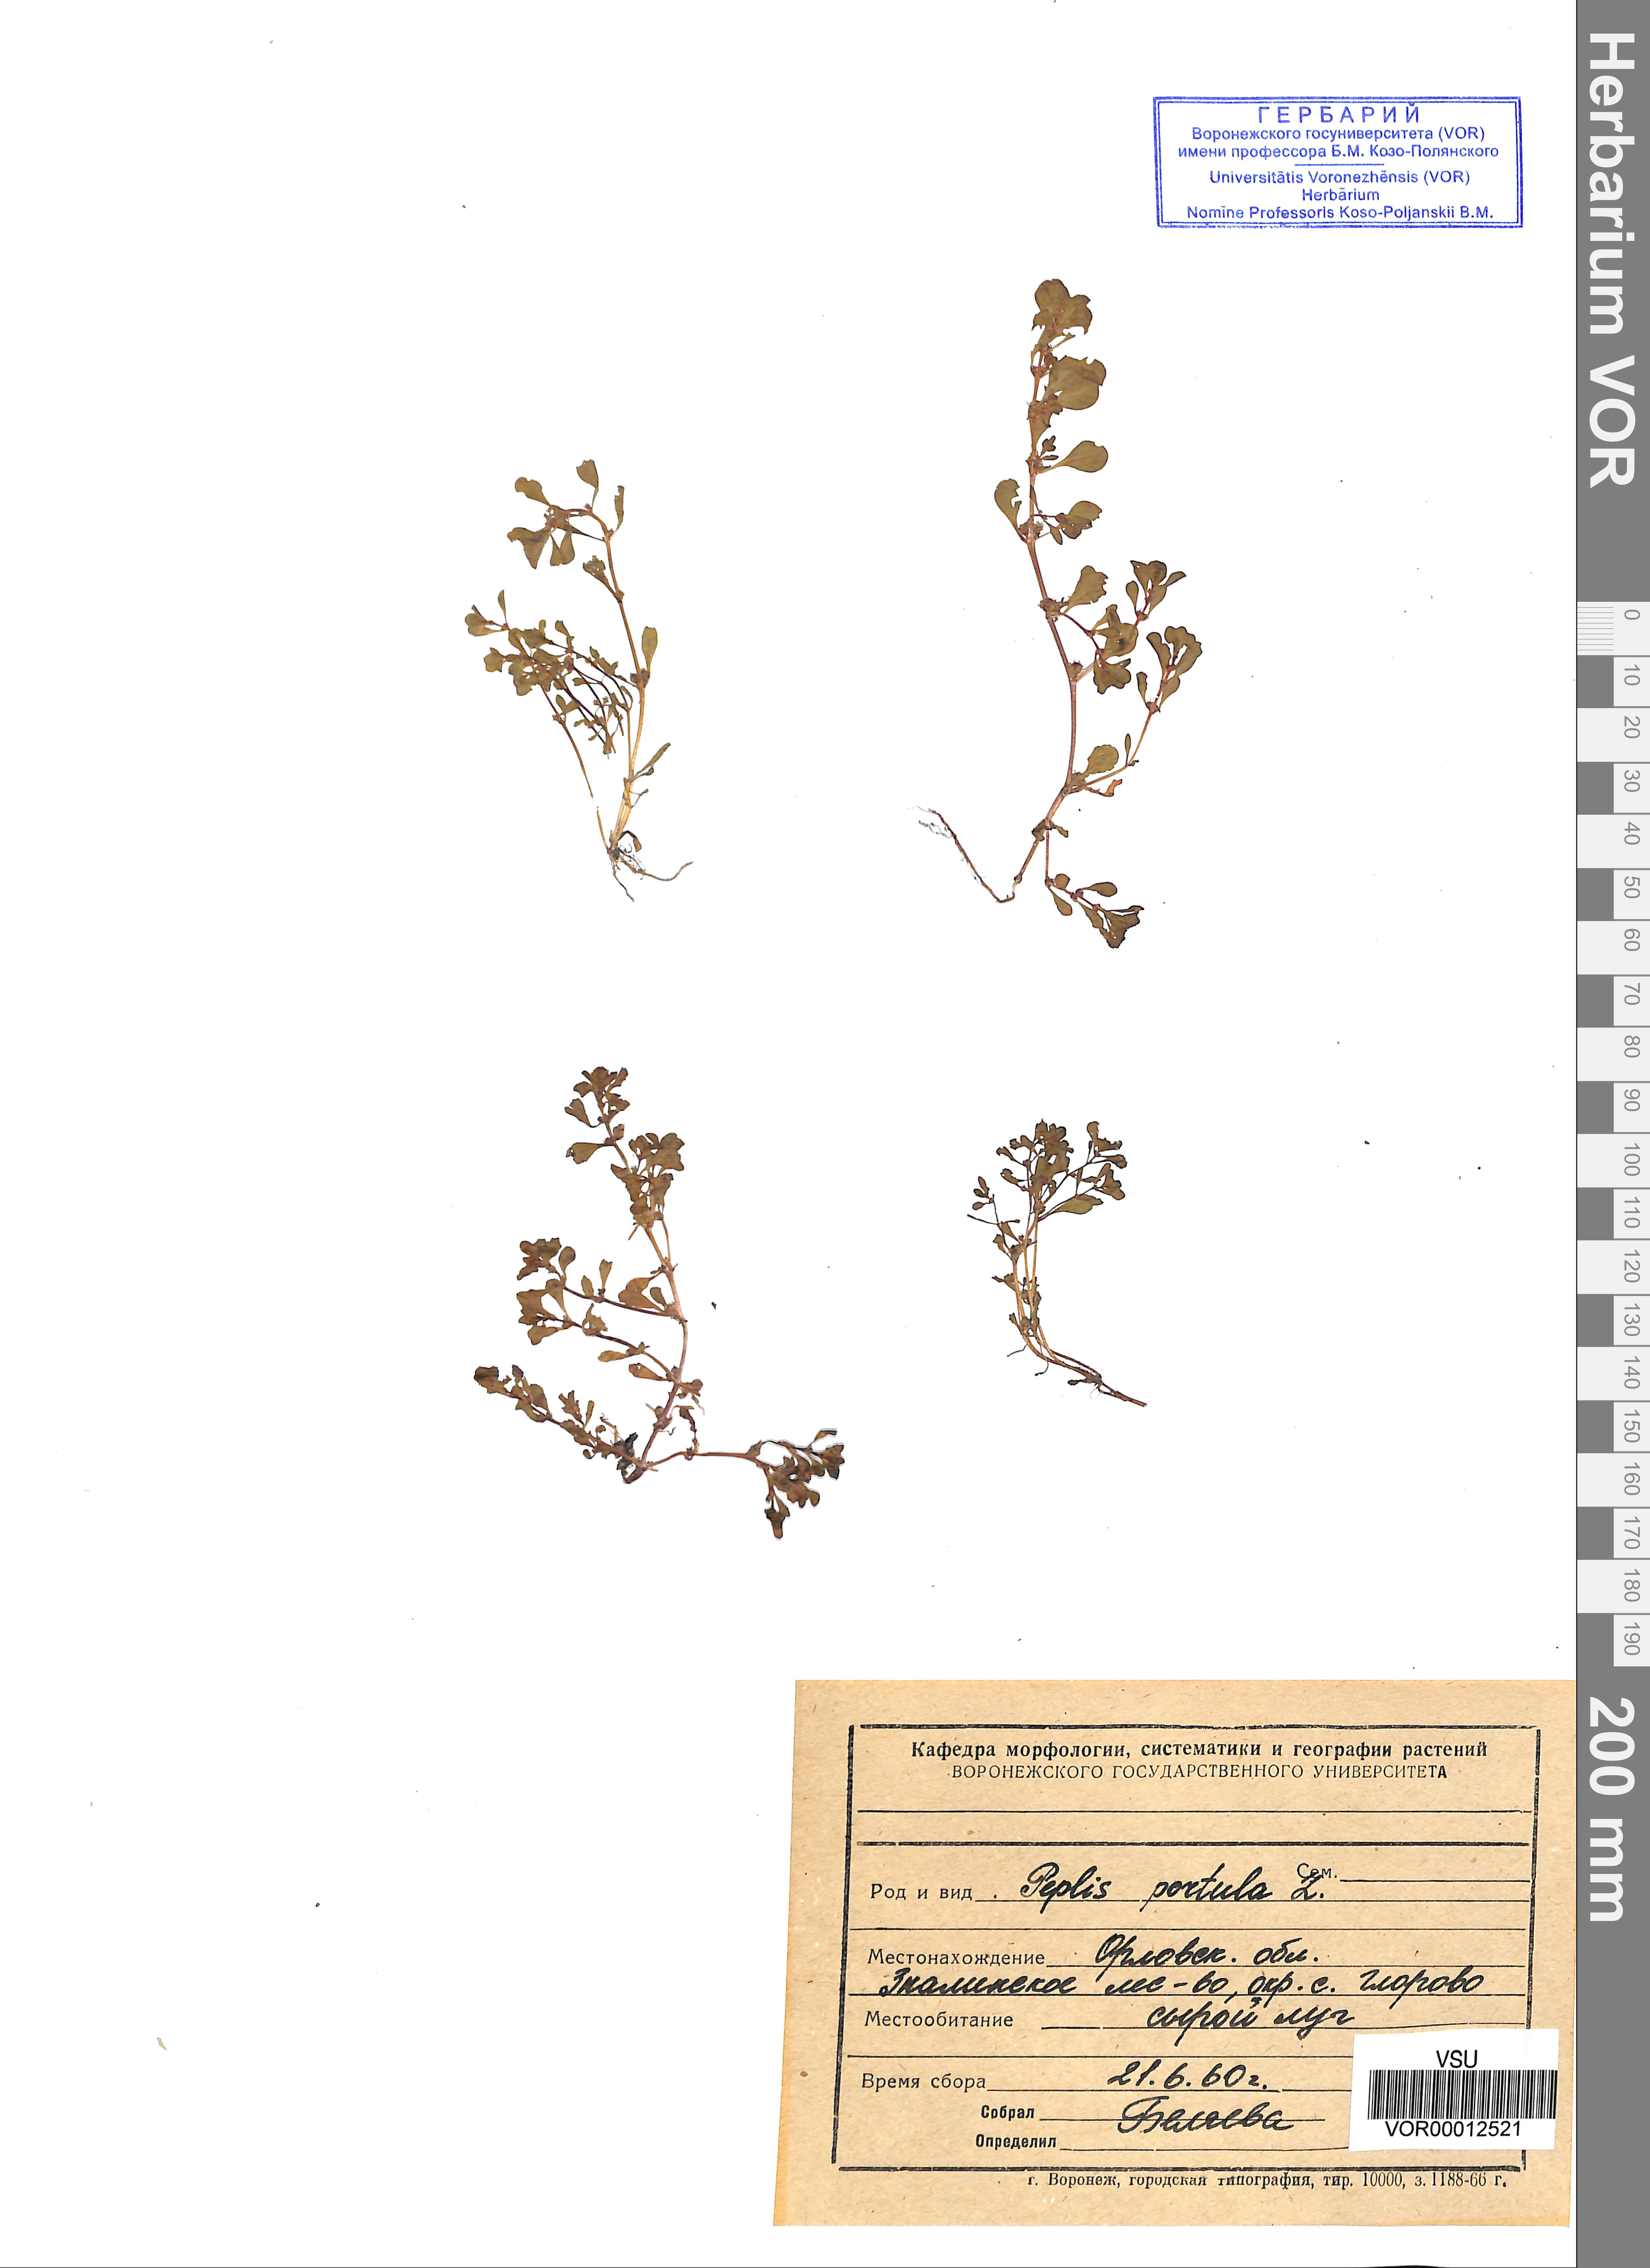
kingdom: Plantae
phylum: Tracheophyta
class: Magnoliopsida
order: Myrtales
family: Lythraceae
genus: Lythrum
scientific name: Lythrum portula
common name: Water purslane
